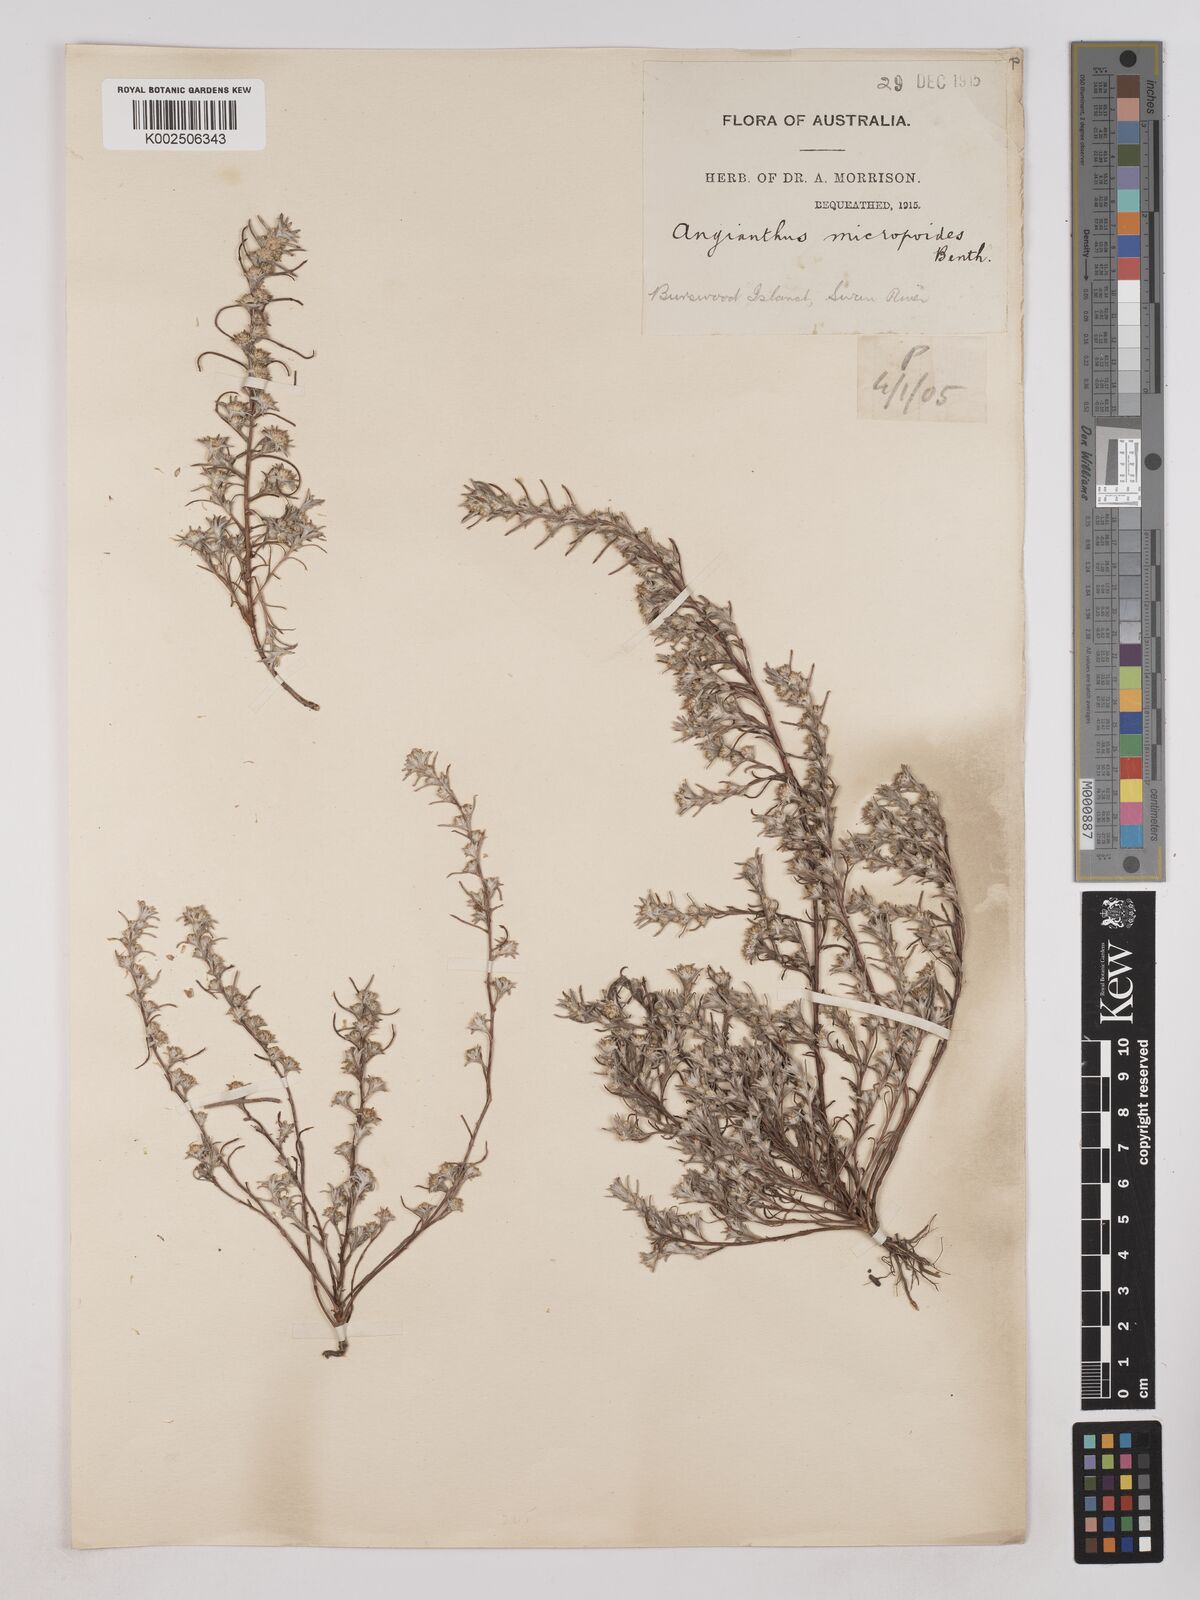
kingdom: Plantae
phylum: Tracheophyta
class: Magnoliopsida
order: Asterales
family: Asteraceae
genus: Angianthus
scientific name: Angianthus micropodioides
